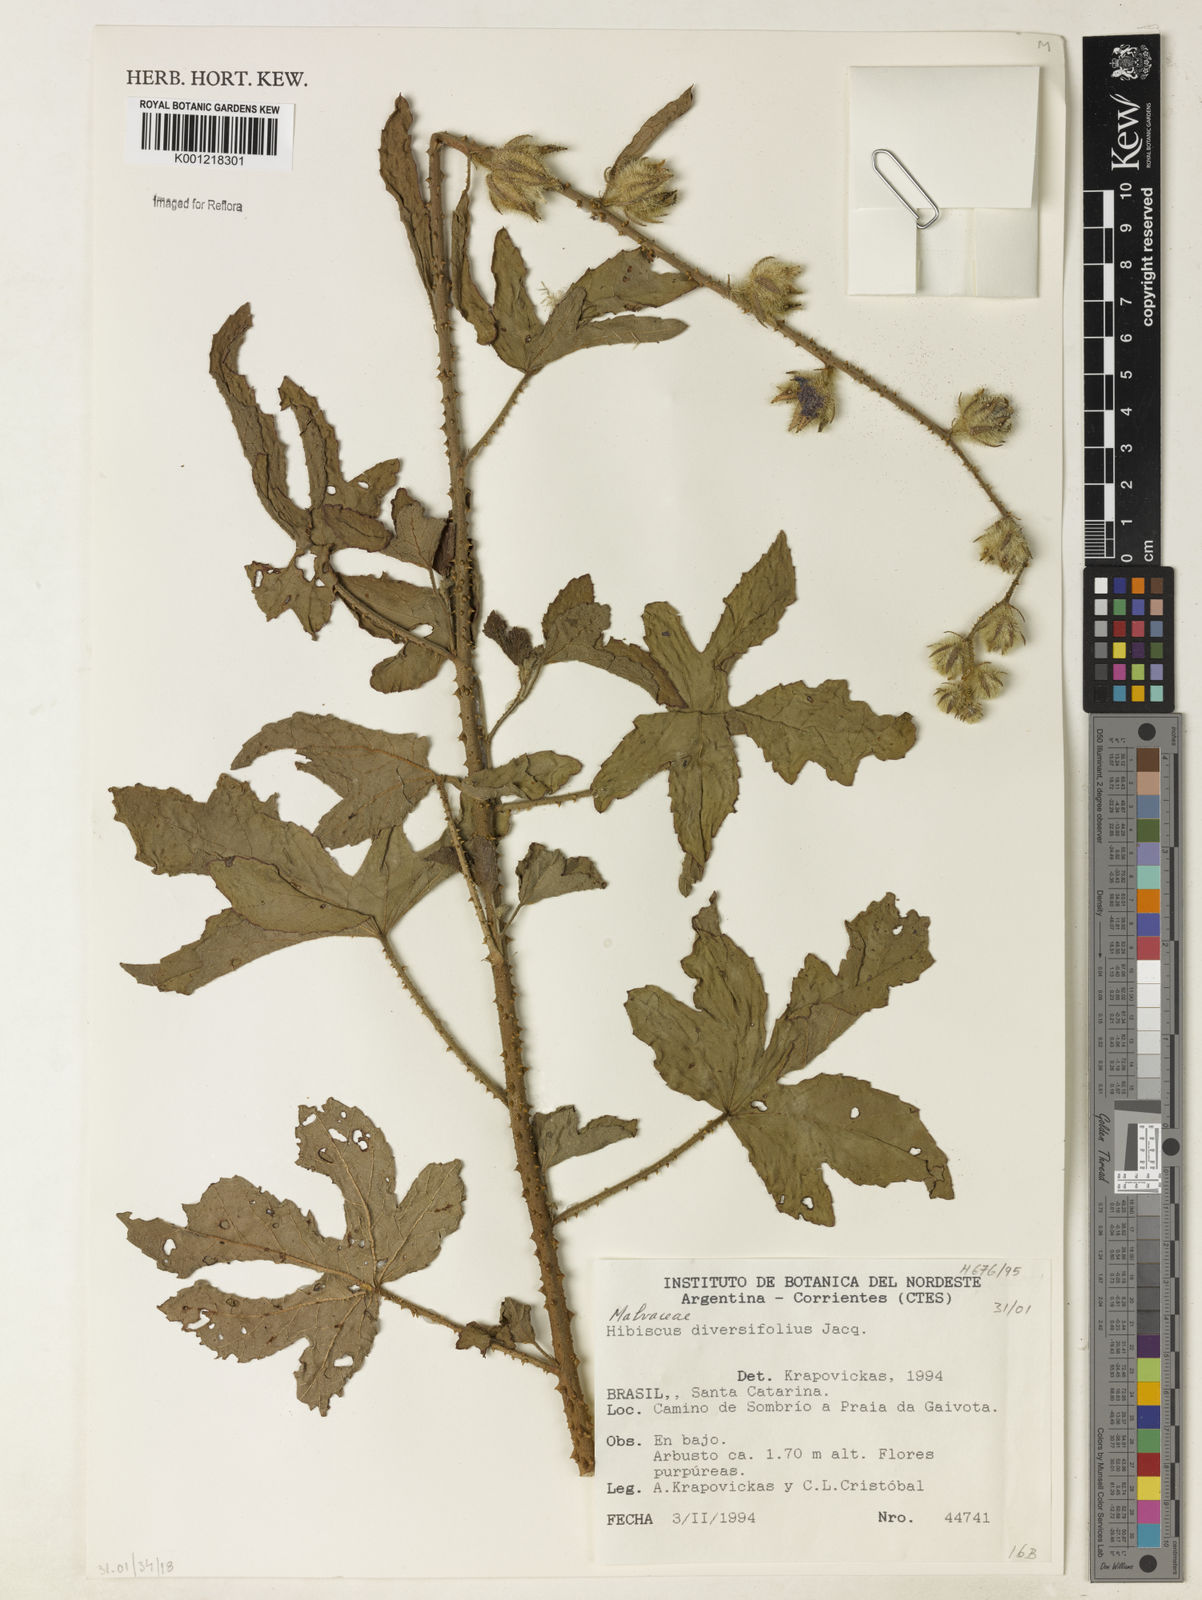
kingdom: Plantae
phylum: Tracheophyta
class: Magnoliopsida
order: Malvales
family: Malvaceae
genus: Hibiscus
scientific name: Hibiscus diversifolius
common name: Cape hibiscus
